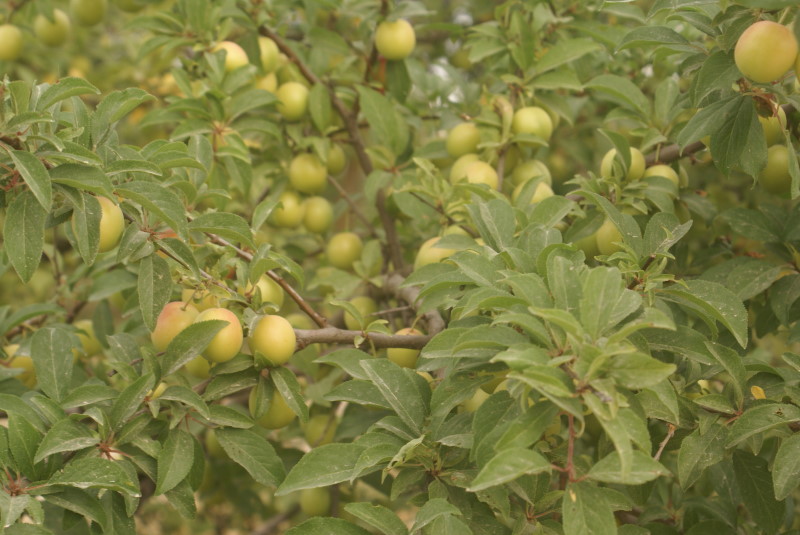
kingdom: Plantae
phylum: Tracheophyta
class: Magnoliopsida
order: Rosales
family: Rosaceae
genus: Prunus
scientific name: Prunus
